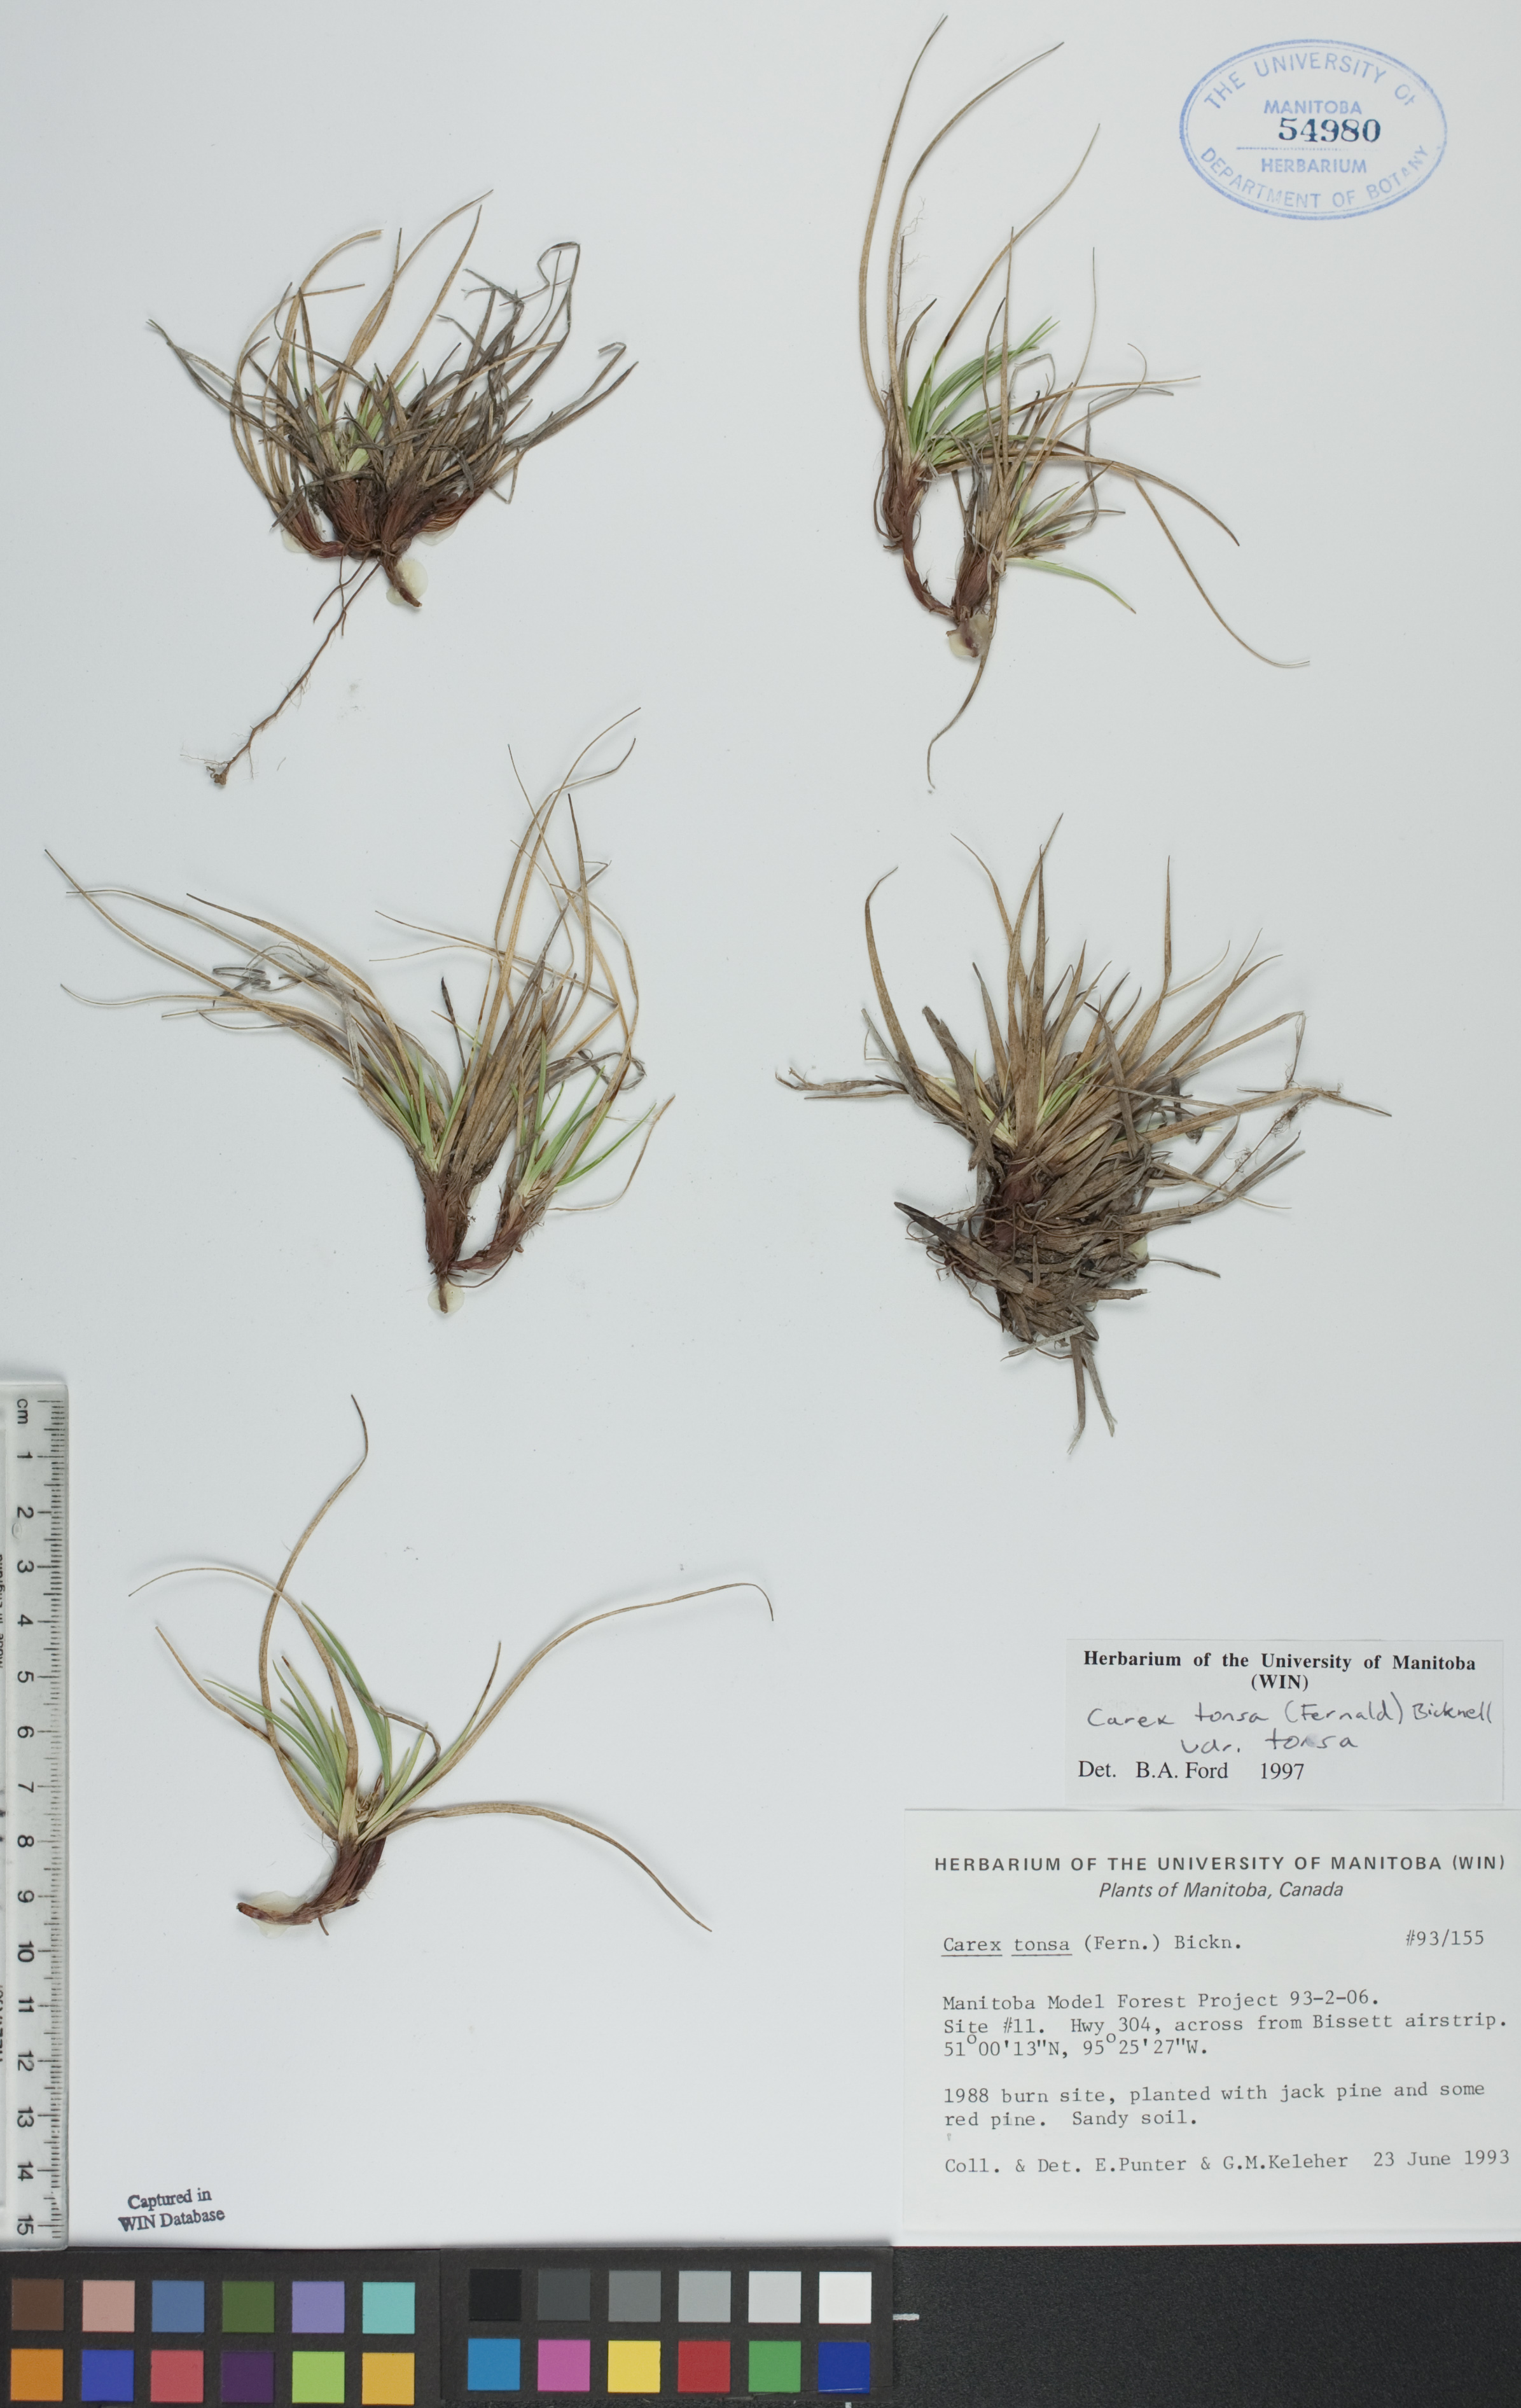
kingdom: Plantae
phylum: Tracheophyta
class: Liliopsida
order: Poales
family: Cyperaceae
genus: Carex
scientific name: Carex tonsa
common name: Bald sedge
